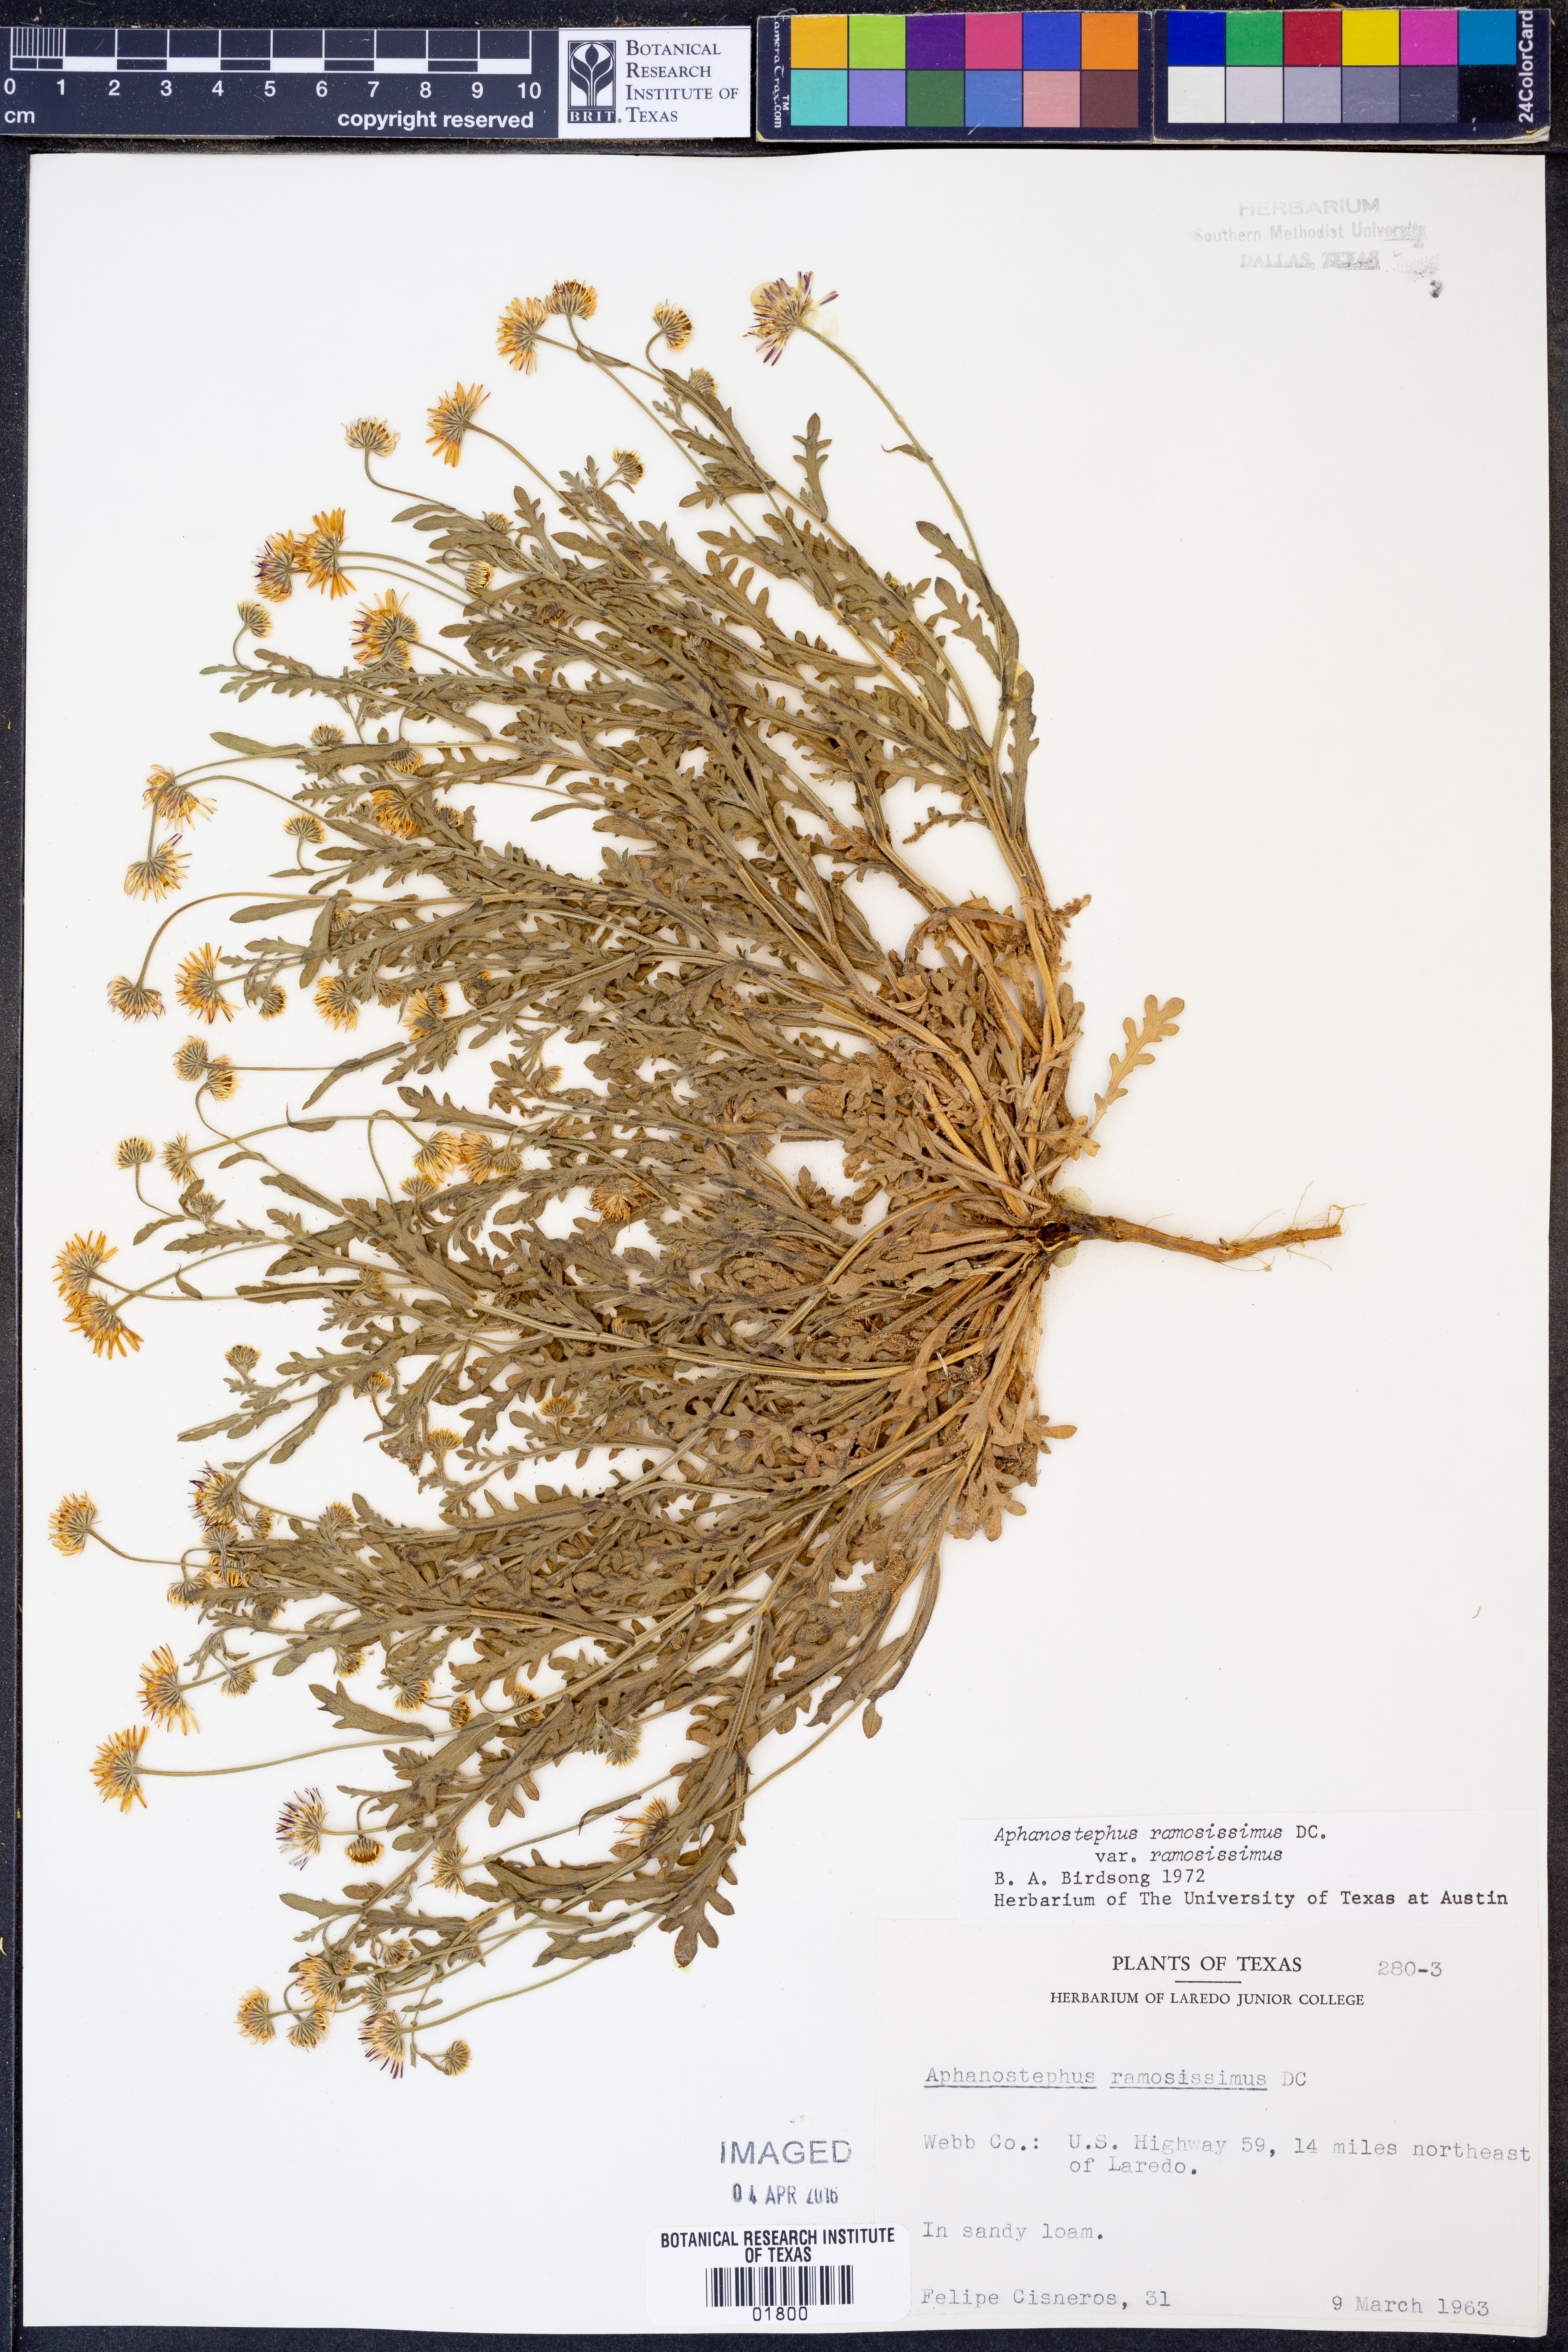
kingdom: Plantae
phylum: Tracheophyta
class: Magnoliopsida
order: Asterales
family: Asteraceae
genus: Aphanostephus
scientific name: Aphanostephus ramosissimus
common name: Plains lazy daisy
